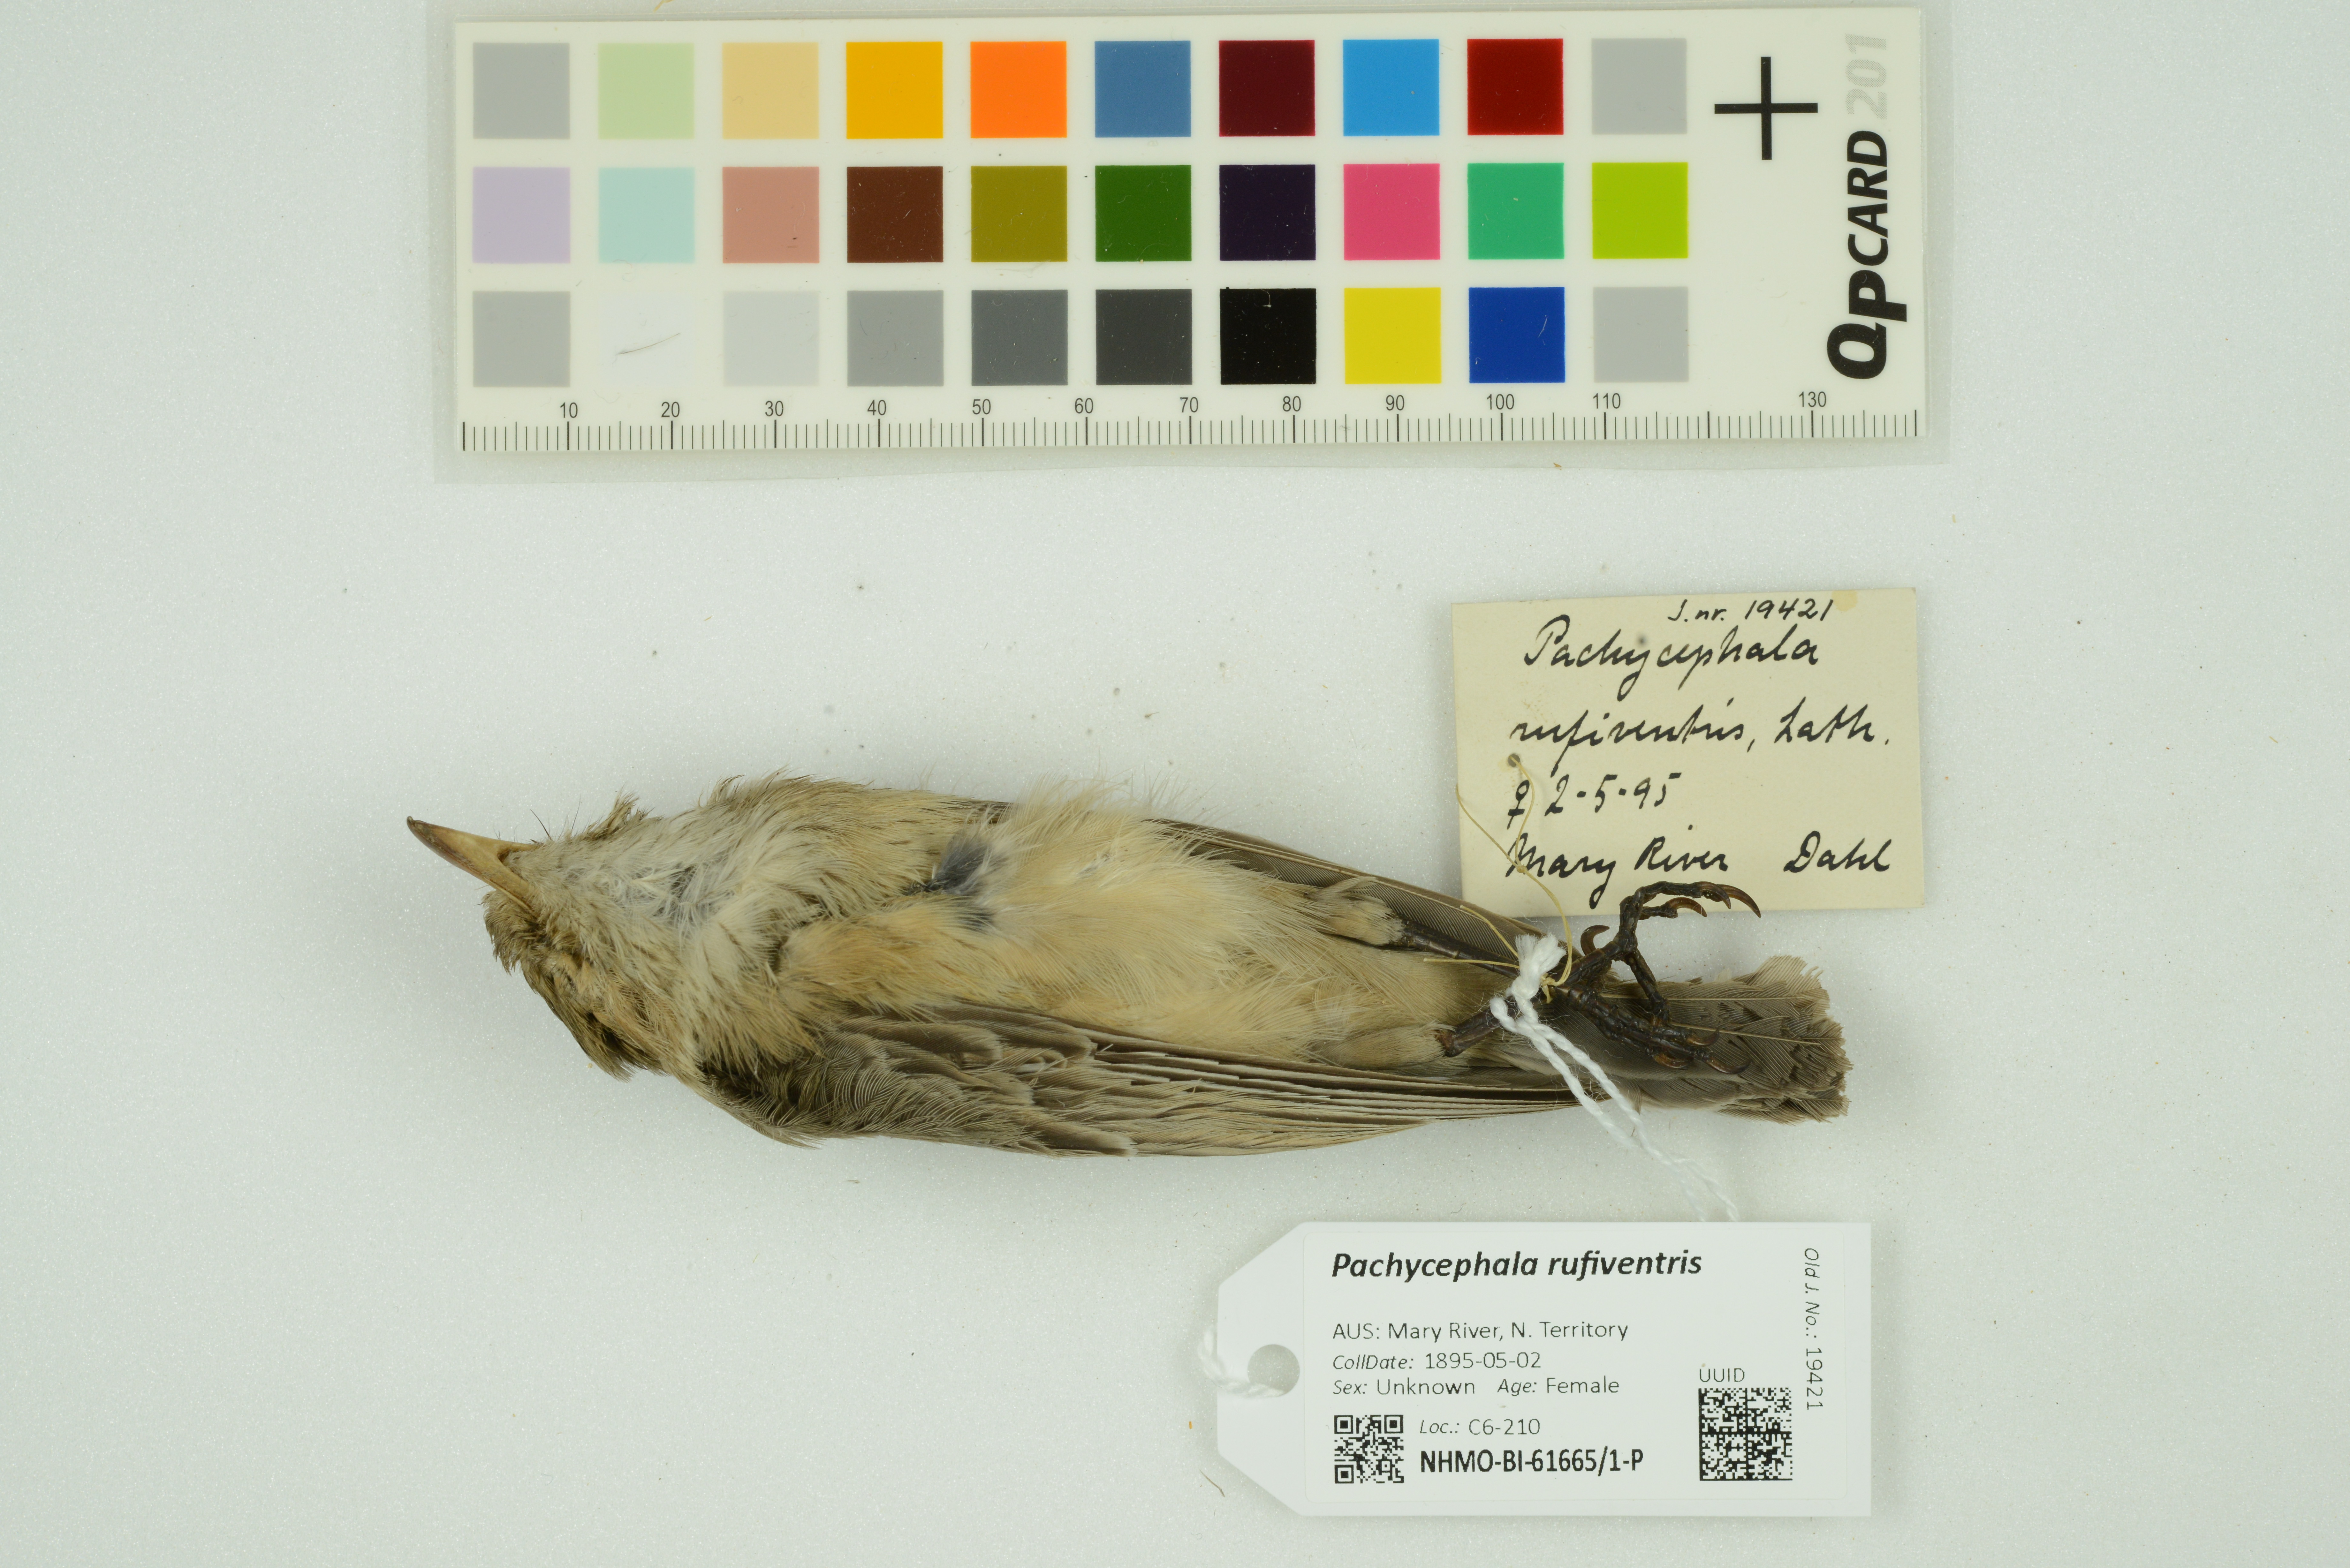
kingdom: Animalia
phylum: Chordata
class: Aves
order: Passeriformes
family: Pachycephalidae
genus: Pachycephala
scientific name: Pachycephala rufiventris
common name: Rufous whistler
